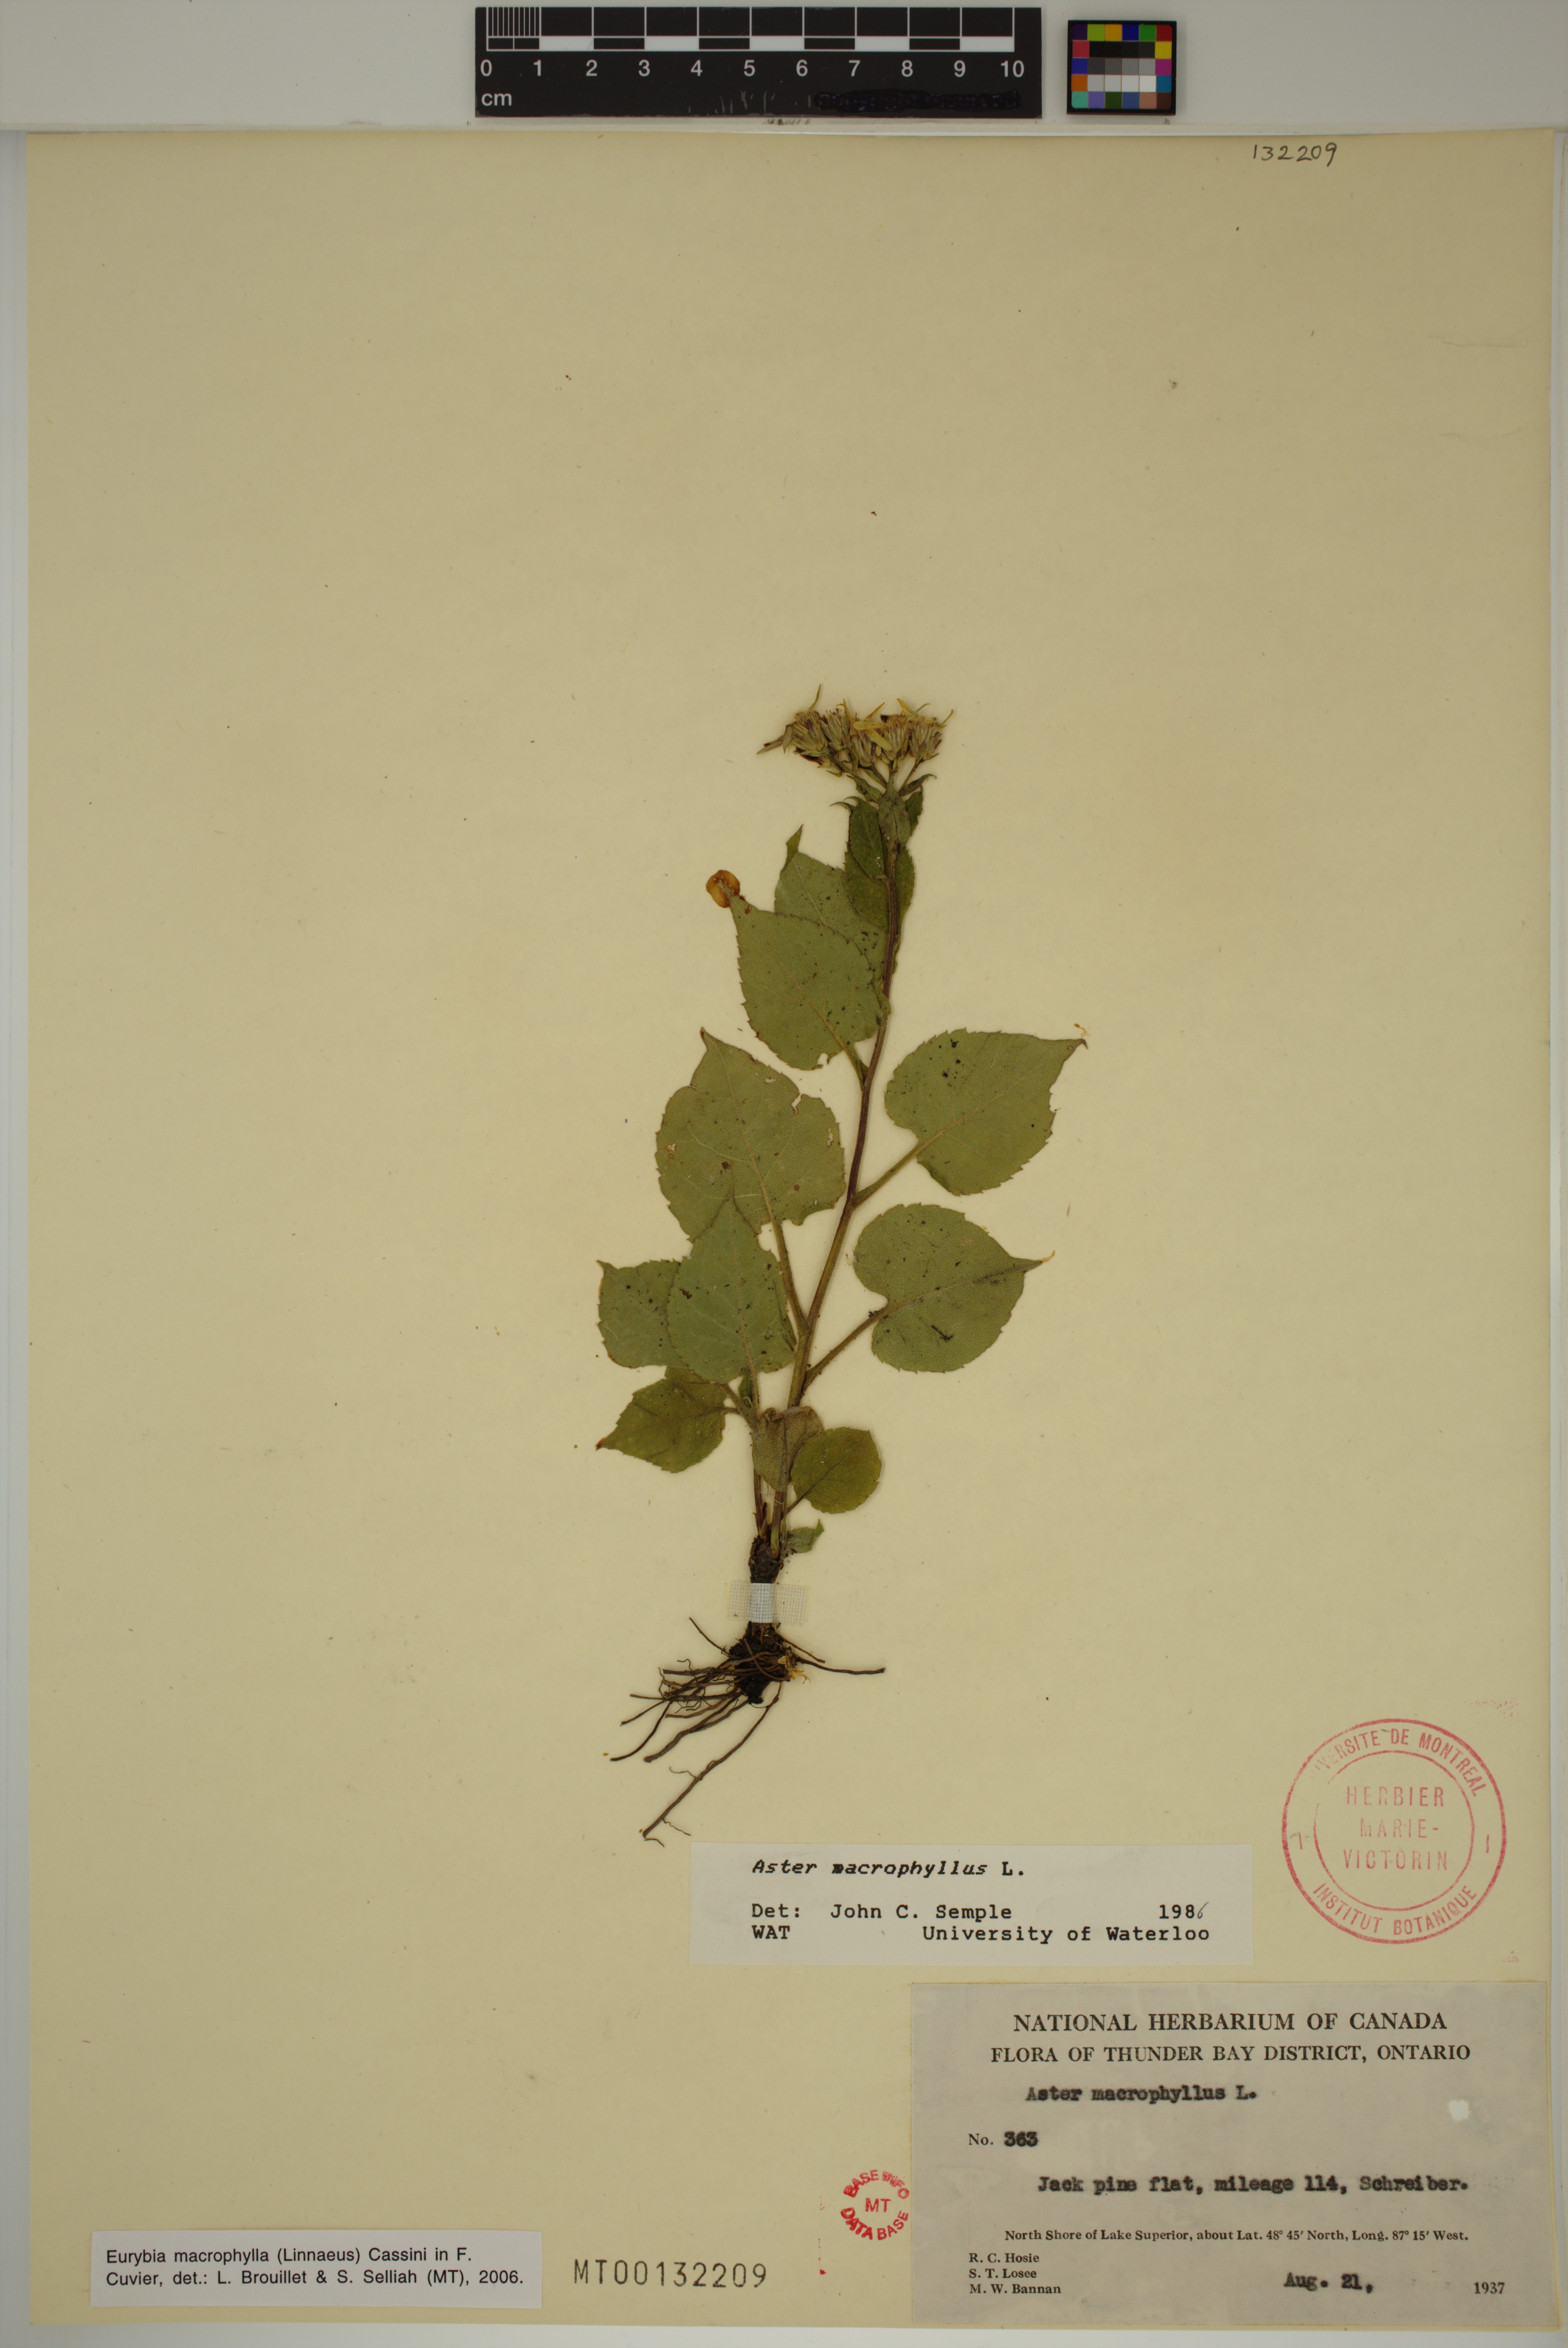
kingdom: Plantae
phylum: Tracheophyta
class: Magnoliopsida
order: Asterales
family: Asteraceae
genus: Eurybia
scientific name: Eurybia macrophylla
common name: Big-leaved aster
